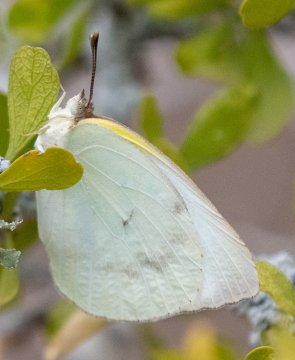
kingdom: Animalia
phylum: Arthropoda
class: Insecta
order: Lepidoptera
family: Pieridae
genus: Kricogonia
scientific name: Kricogonia lyside
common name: Lyside Sulphur
